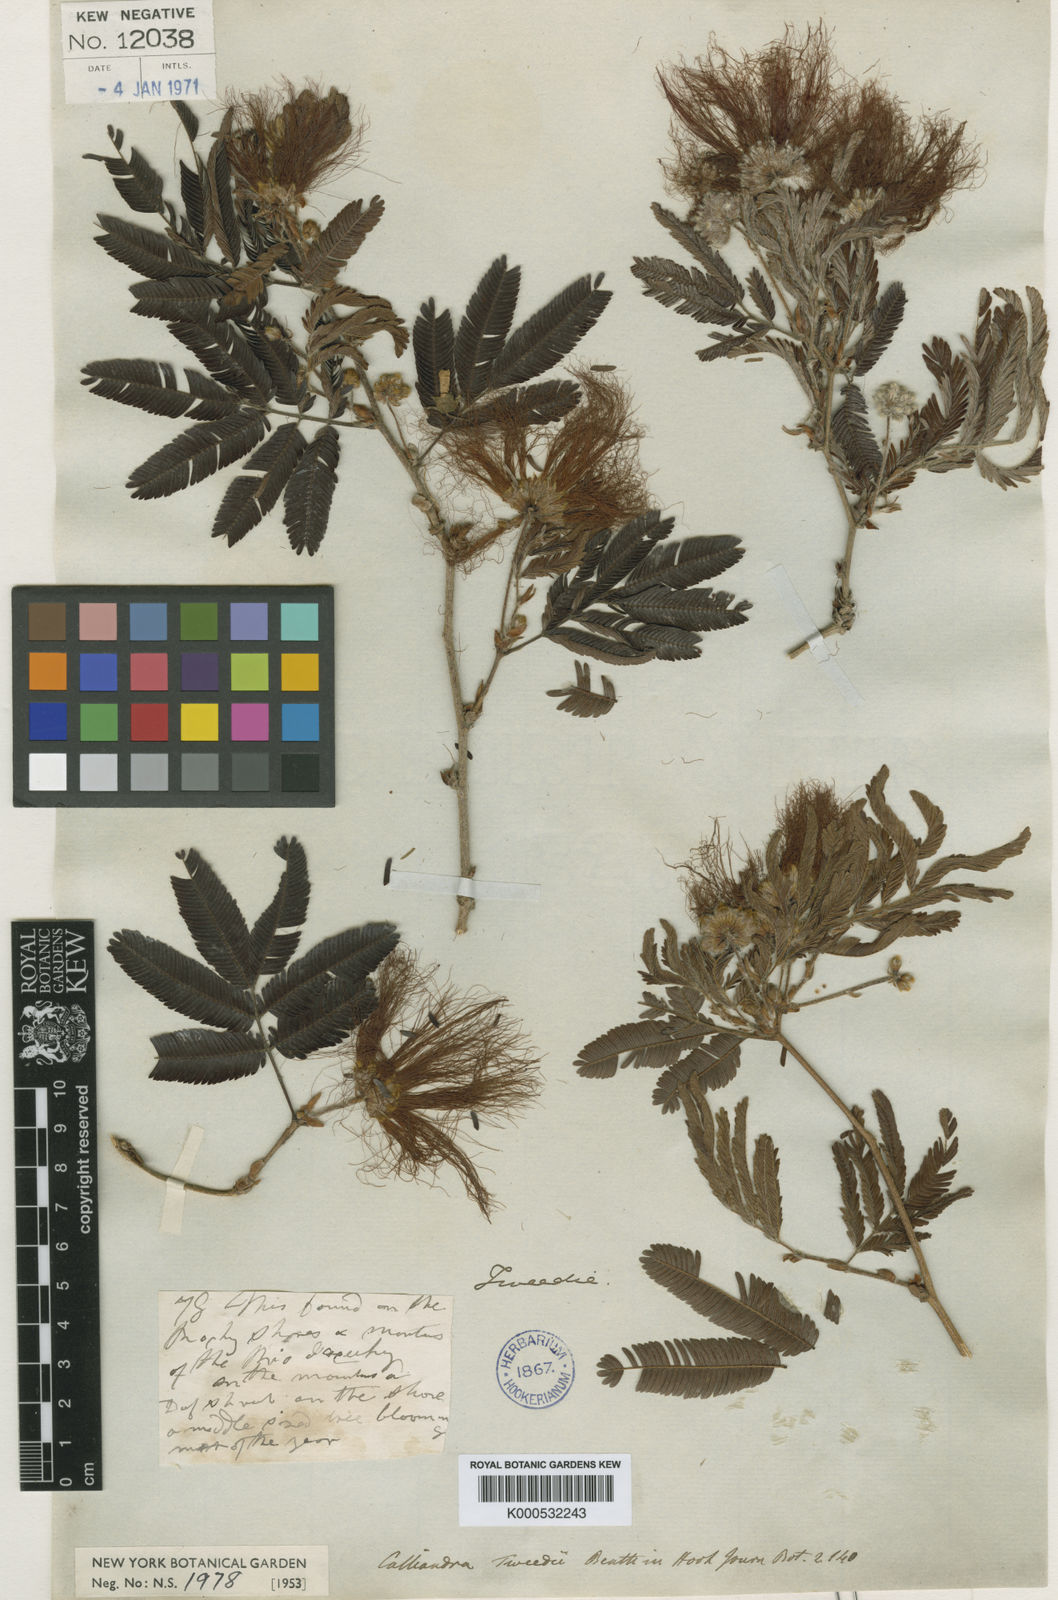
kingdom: Plantae
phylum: Tracheophyta
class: Magnoliopsida
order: Fabales
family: Fabaceae
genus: Calliandra
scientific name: Calliandra tweediei
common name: Mexican flamebush
